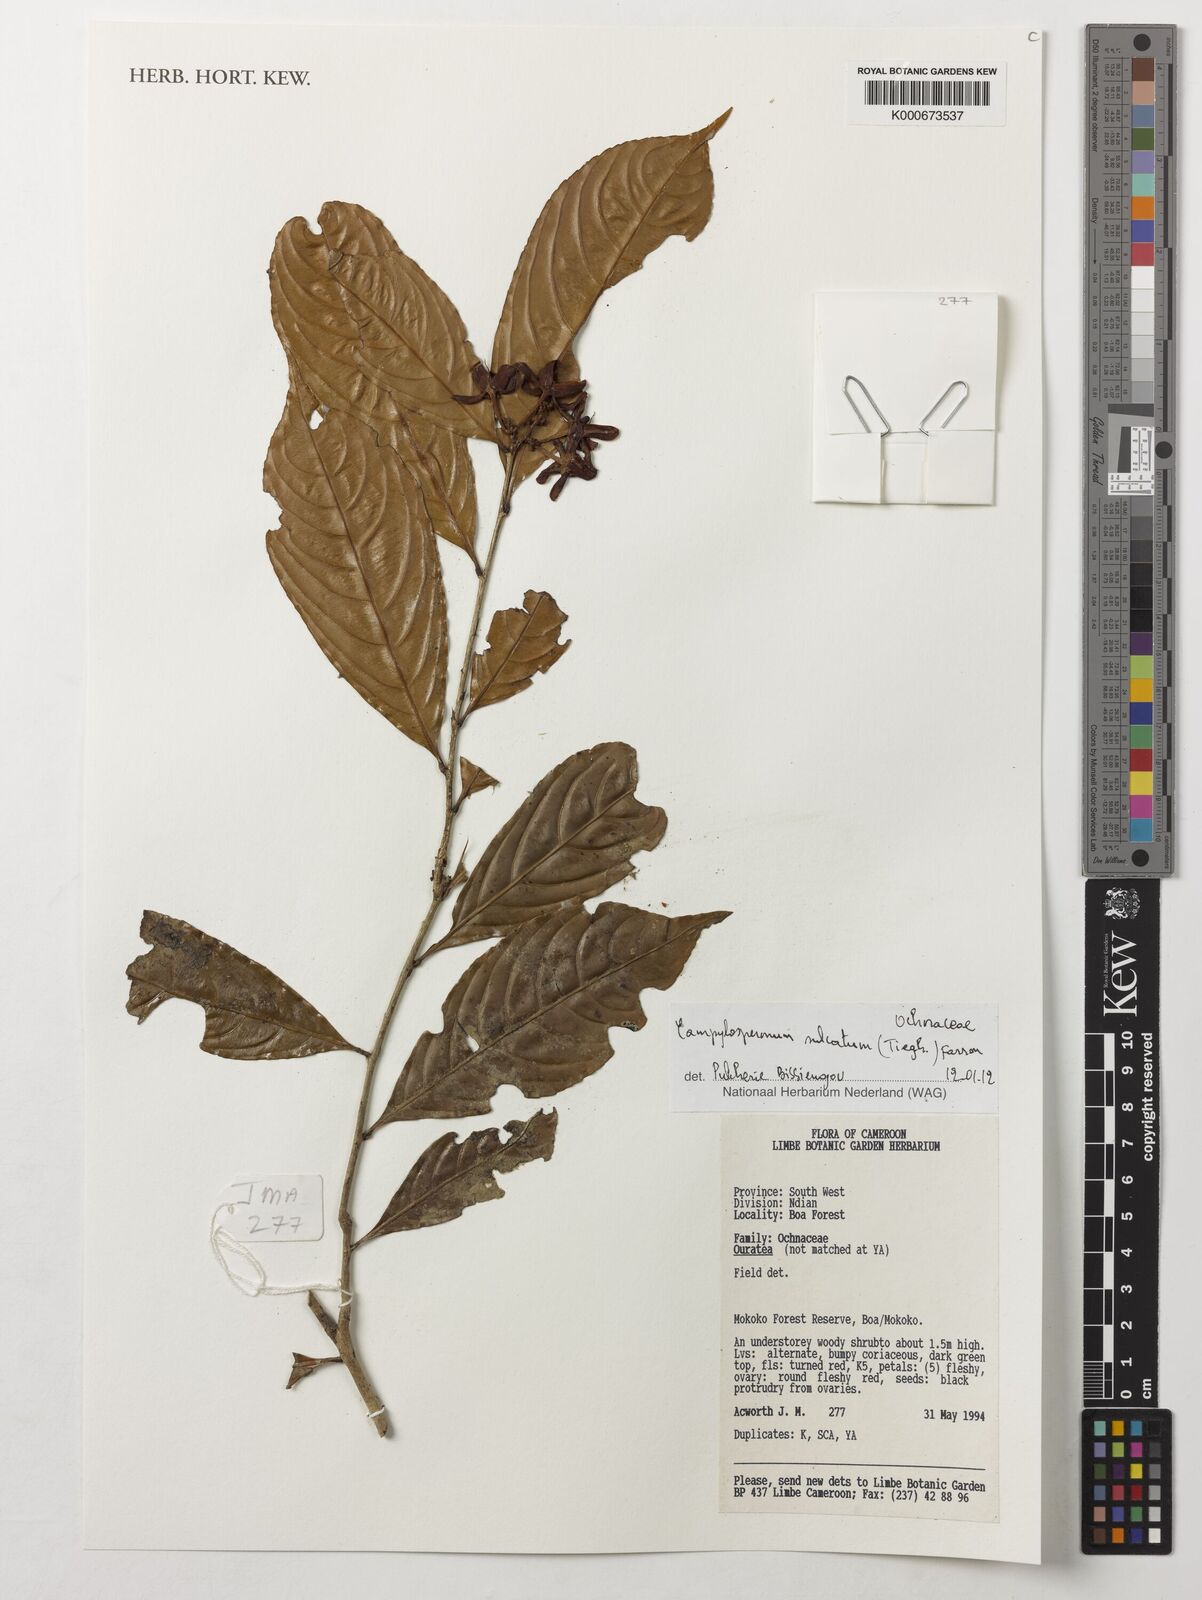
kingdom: Plantae
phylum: Tracheophyta
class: Magnoliopsida
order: Malpighiales
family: Ochnaceae
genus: Campylospermum
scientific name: Campylospermum sulcatum
